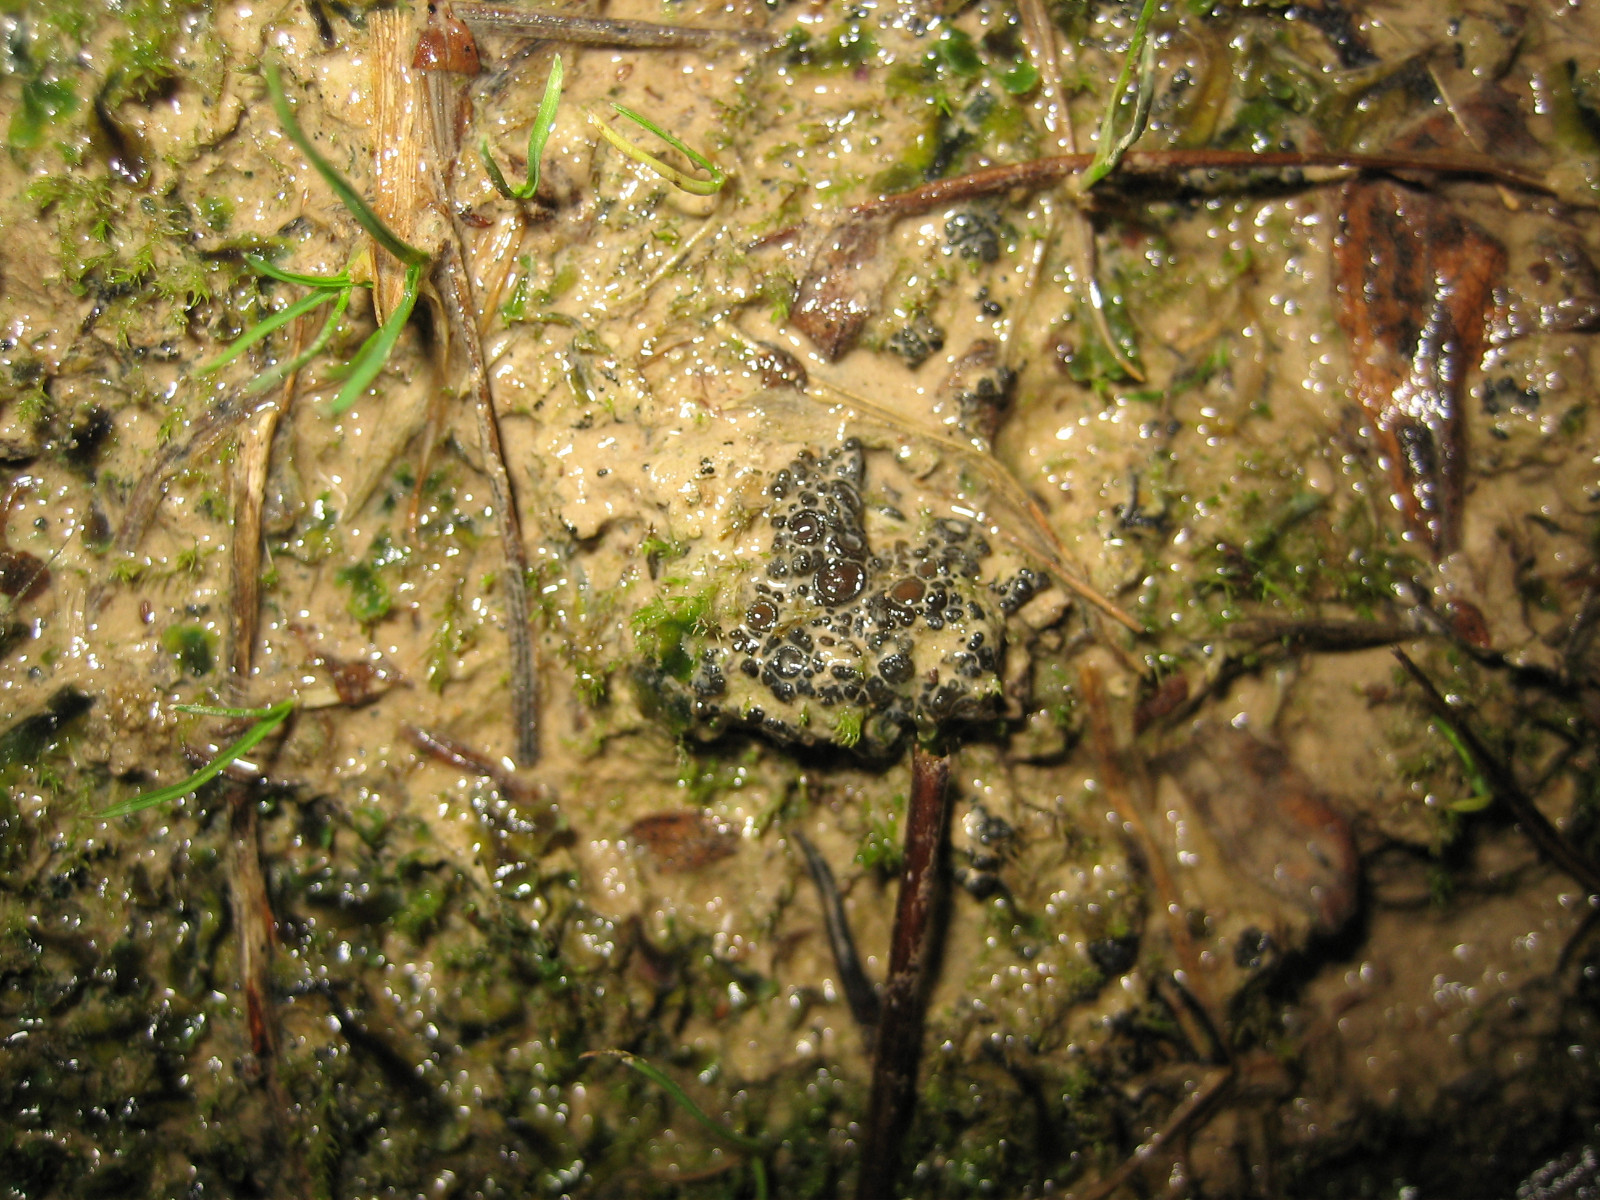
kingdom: Fungi
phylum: Ascomycota
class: Lecanoromycetes
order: Peltigerales
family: Collemataceae
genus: Enchylium
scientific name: Enchylium limosum
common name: dynd-bævrelav
